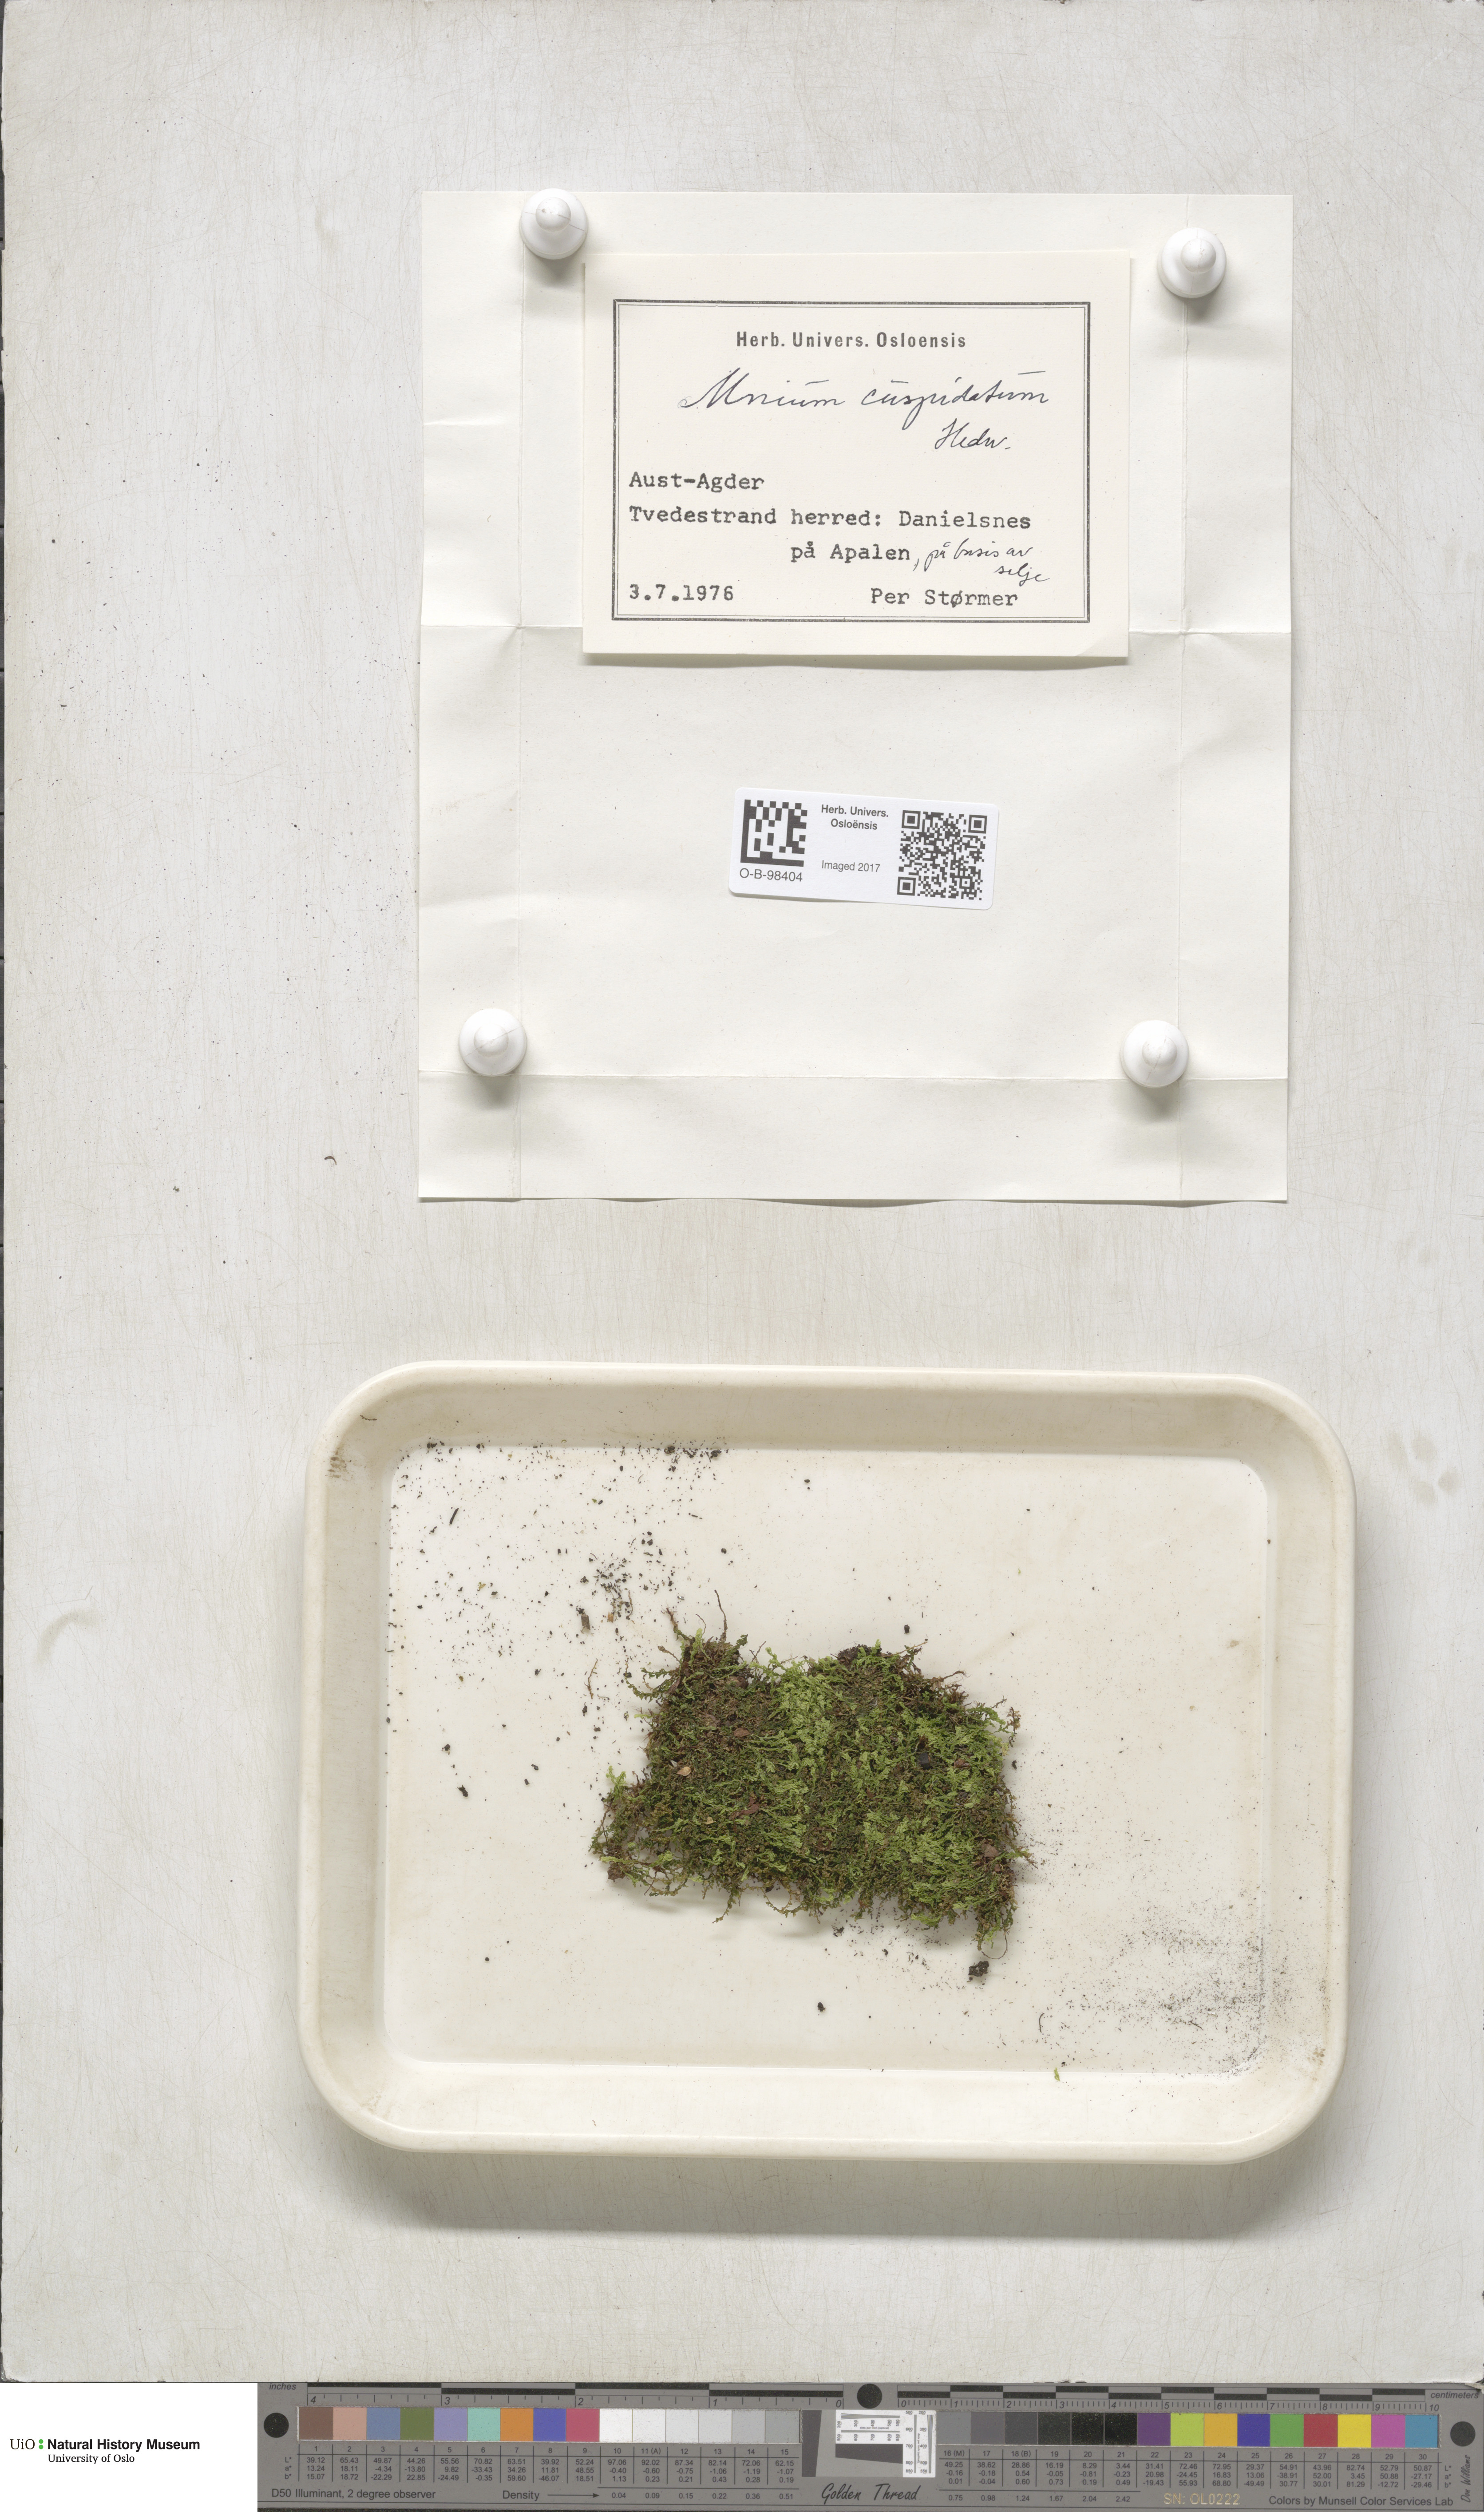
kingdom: Plantae
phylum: Bryophyta
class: Bryopsida
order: Bryales
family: Mniaceae
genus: Plagiomnium
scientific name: Plagiomnium cuspidatum
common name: Woodsy leafy moss
